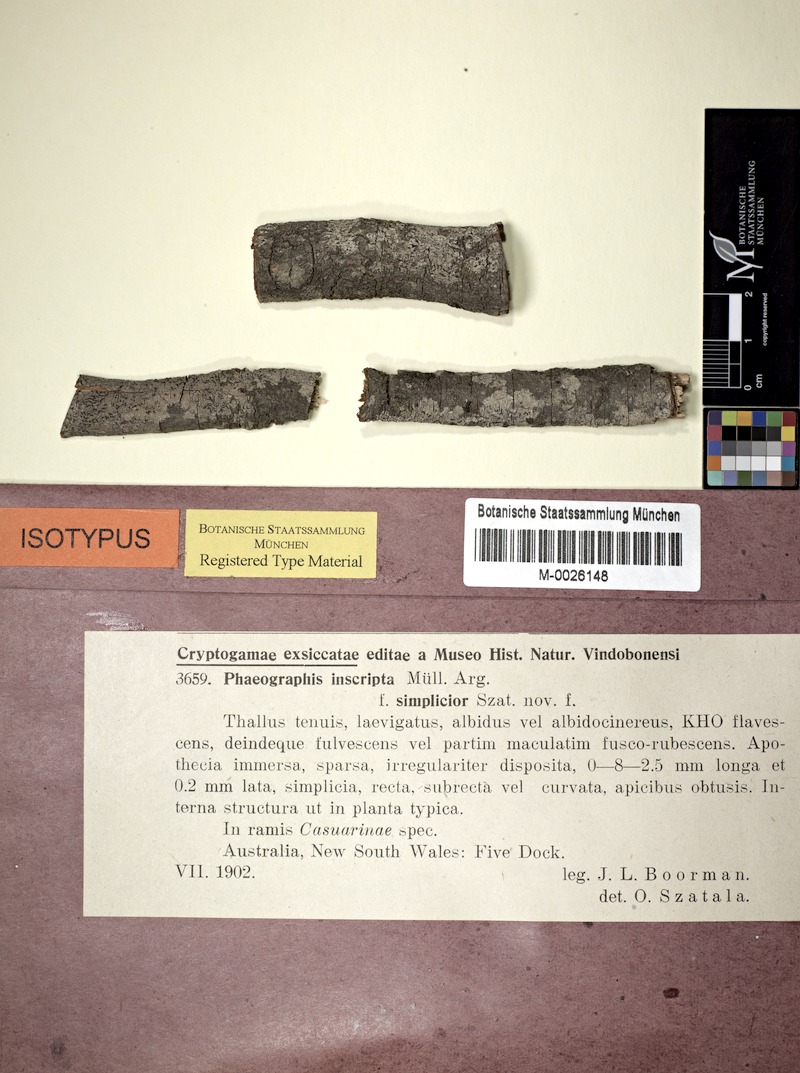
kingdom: Fungi
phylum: Ascomycota
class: Lecanoromycetes
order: Ostropales
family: Graphidaceae
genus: Halegrapha
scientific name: Halegrapha mucronata
